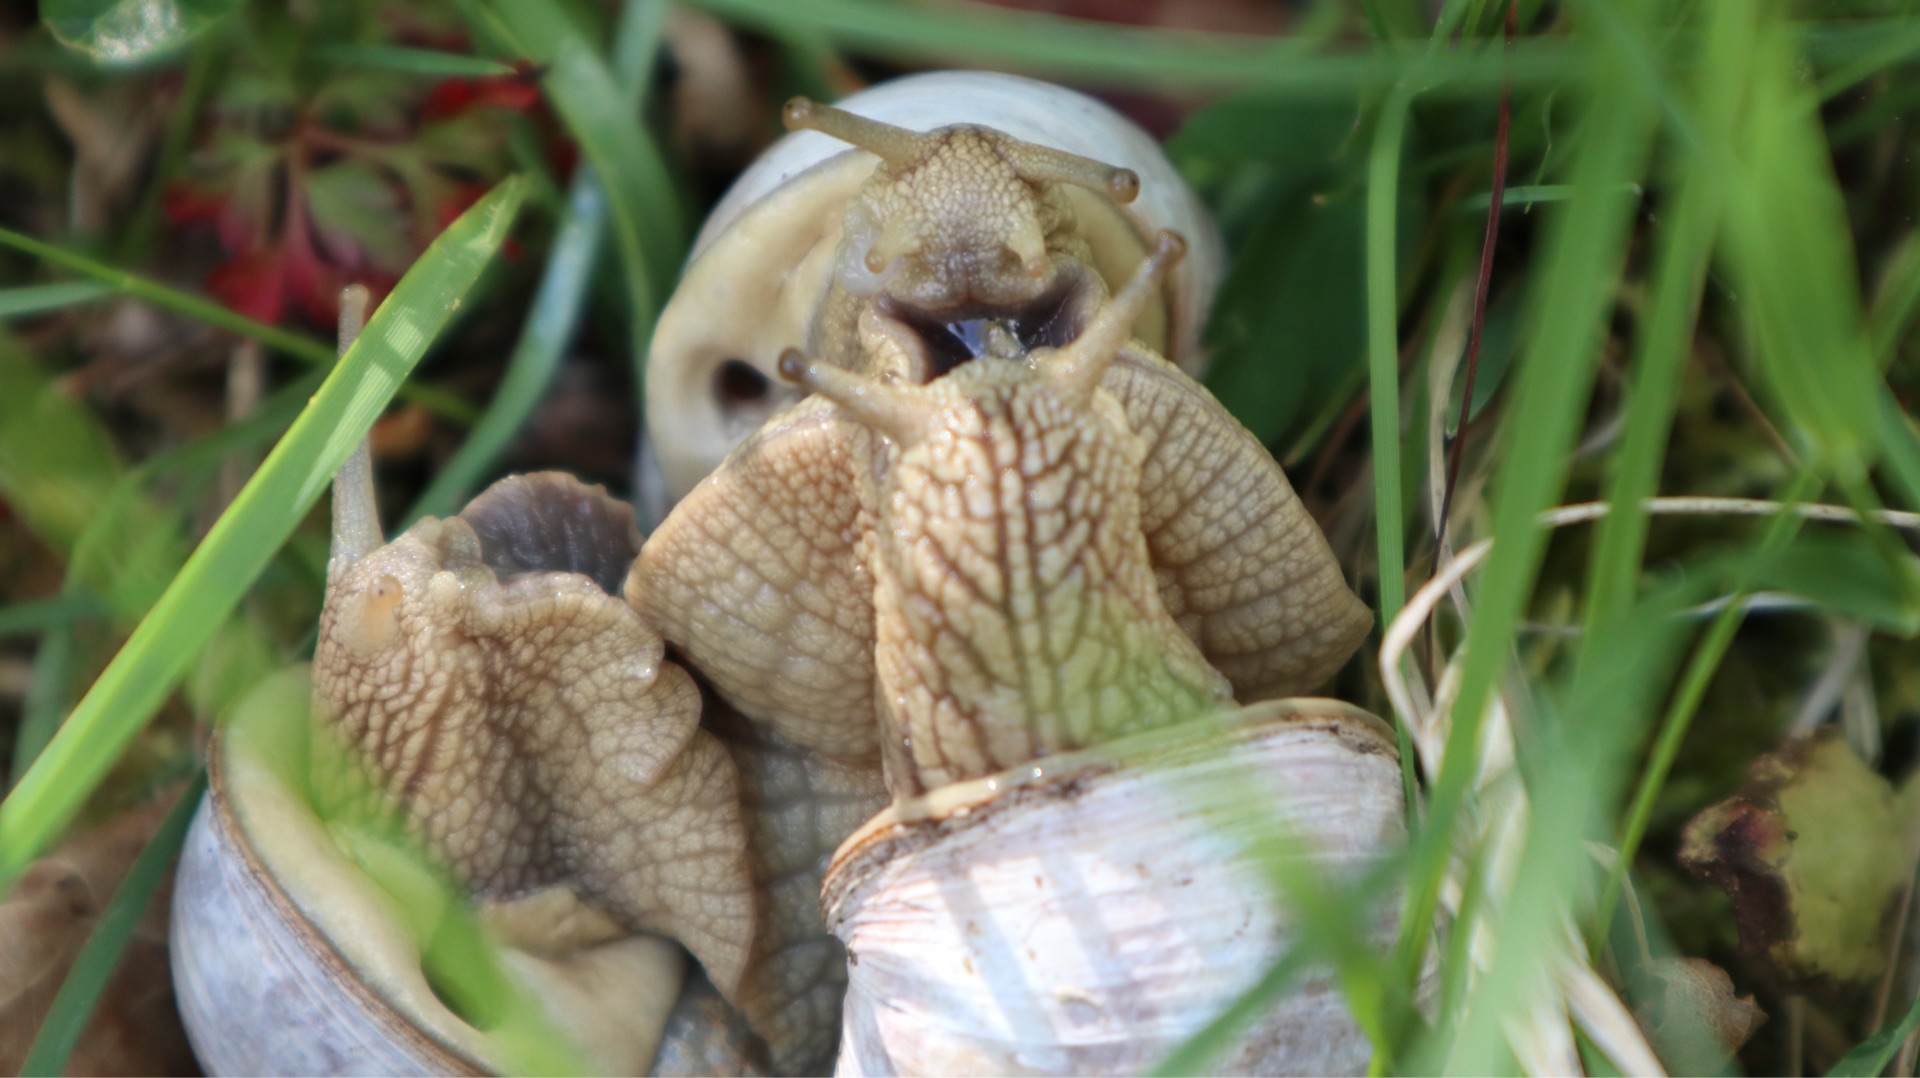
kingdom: Animalia
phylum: Mollusca
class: Gastropoda
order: Stylommatophora
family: Helicidae
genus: Helix
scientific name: Helix pomatia
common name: Vinbjergsnegl
